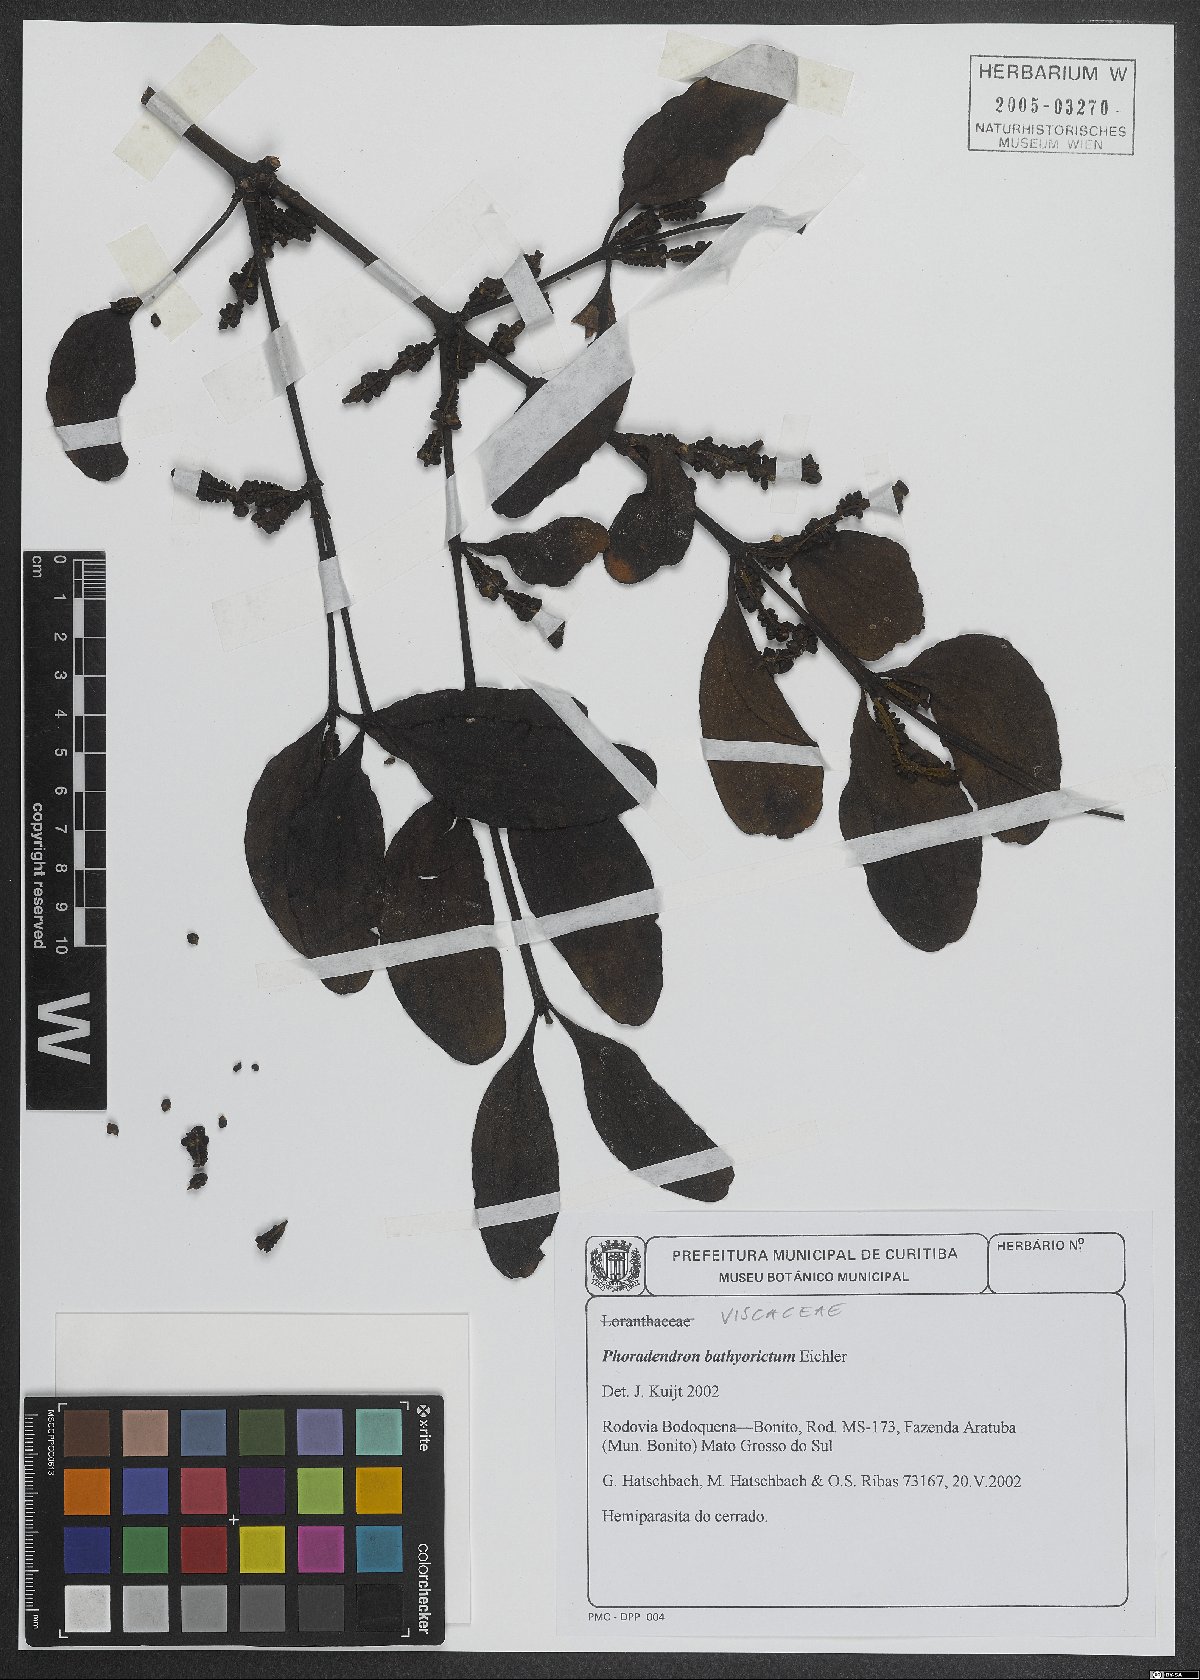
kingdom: Plantae
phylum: Tracheophyta
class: Magnoliopsida
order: Santalales
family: Viscaceae
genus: Phoradendron
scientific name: Phoradendron bathyoryctum
